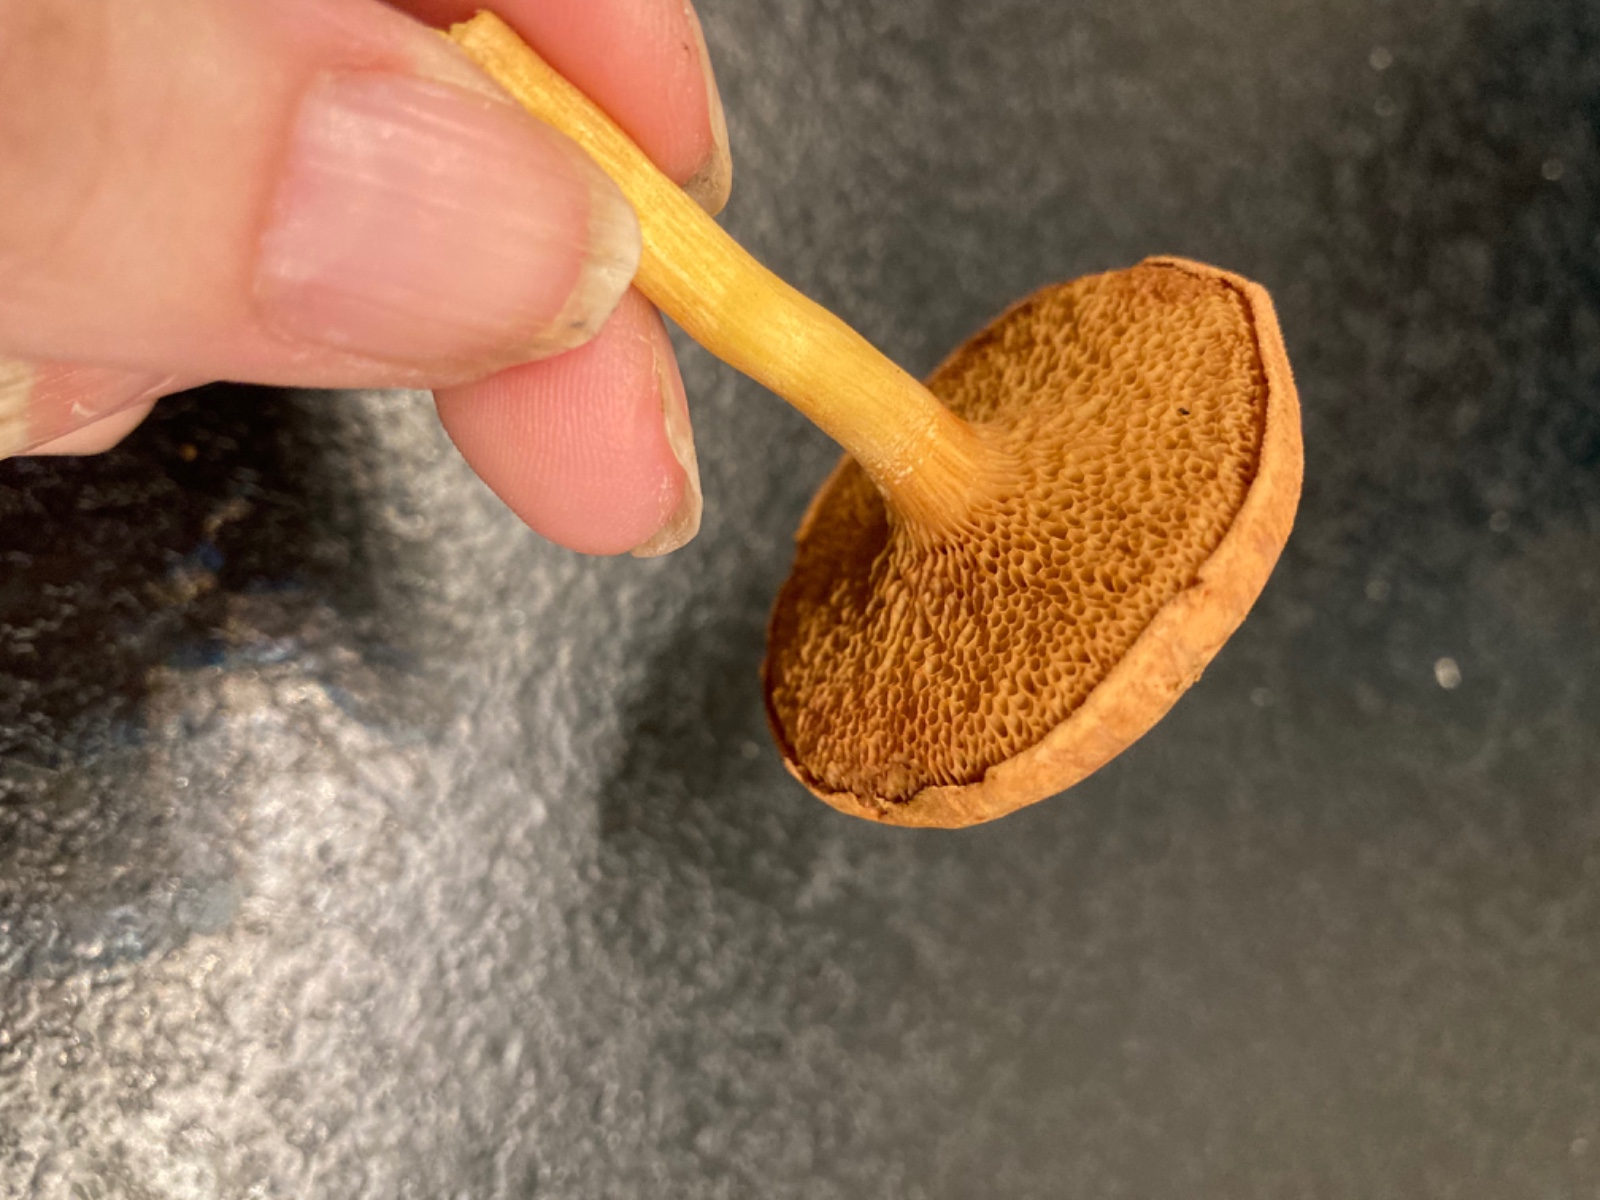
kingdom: Fungi
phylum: Basidiomycota
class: Agaricomycetes
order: Boletales
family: Boletaceae
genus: Chalciporus
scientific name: Chalciporus piperatus
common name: peberrørhat
